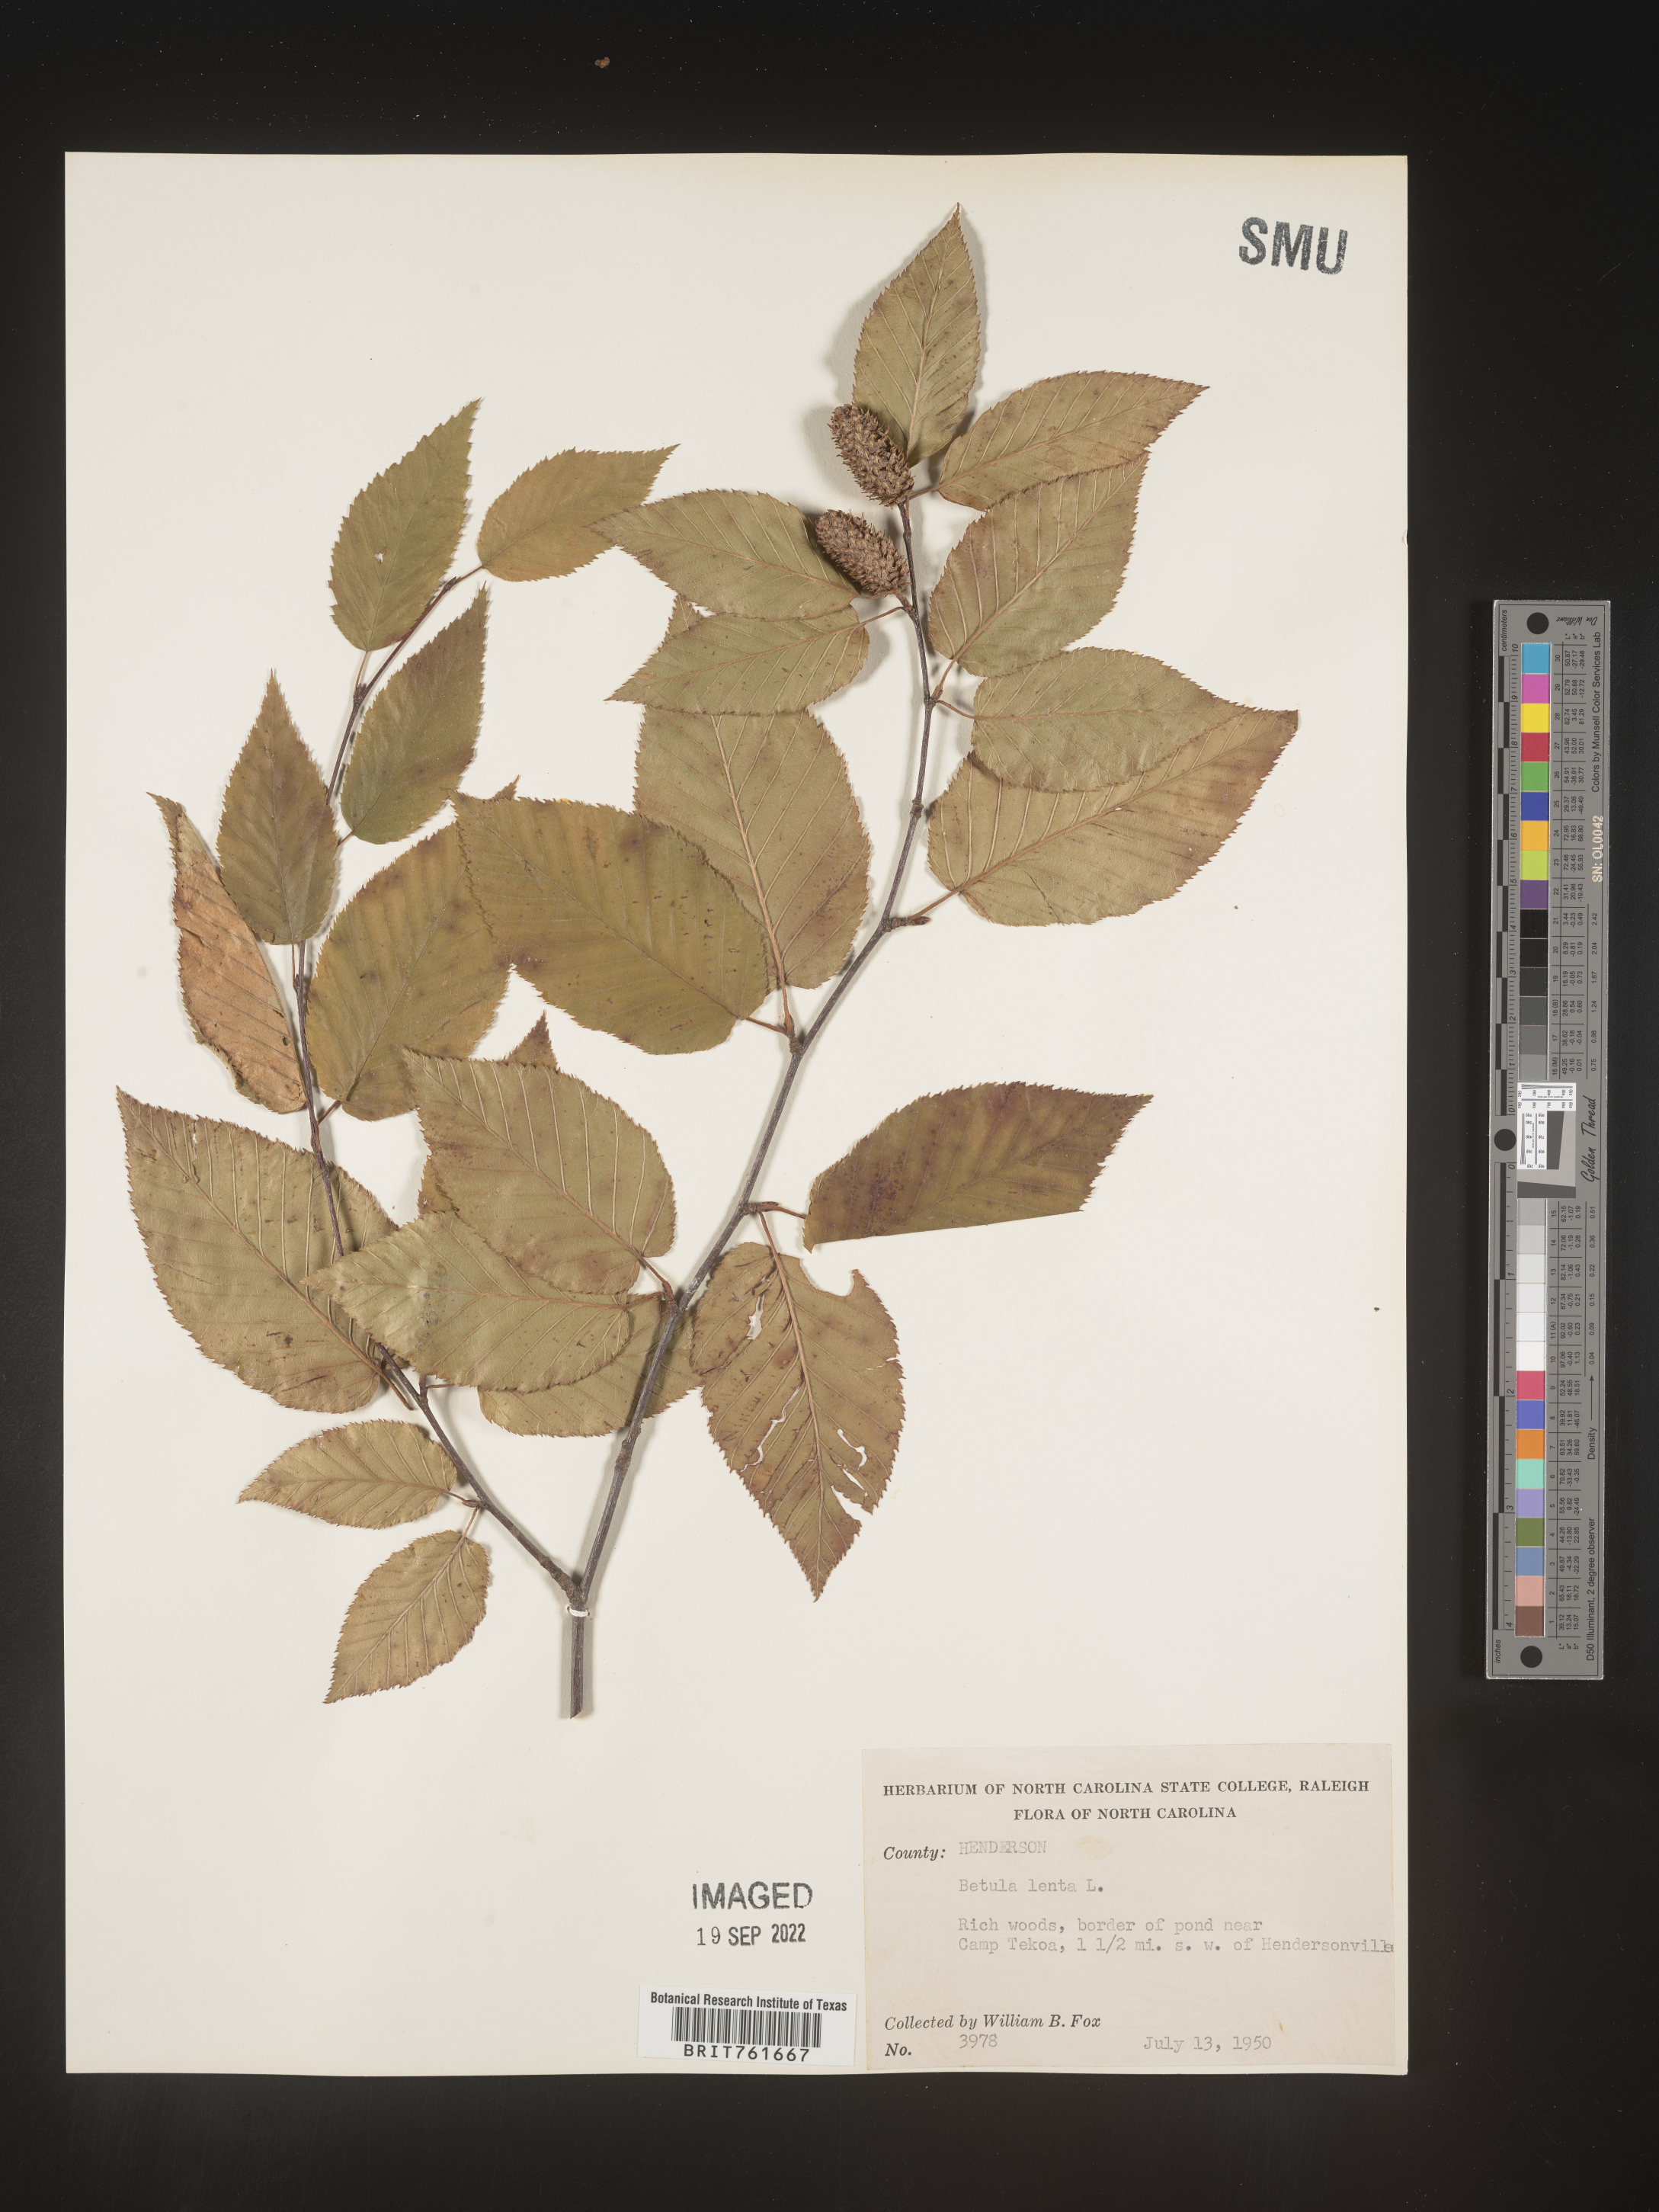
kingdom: Plantae
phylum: Tracheophyta
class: Magnoliopsida
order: Fagales
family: Betulaceae
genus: Betula
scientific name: Betula lenta
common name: Black birch
